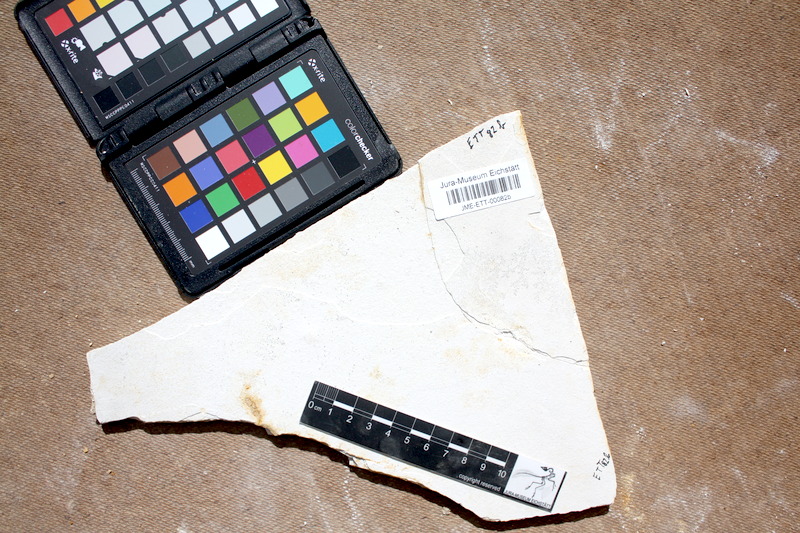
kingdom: Animalia
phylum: Chordata
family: Macrosemiidae
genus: Notagogus
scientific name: Notagogus denticulatus
